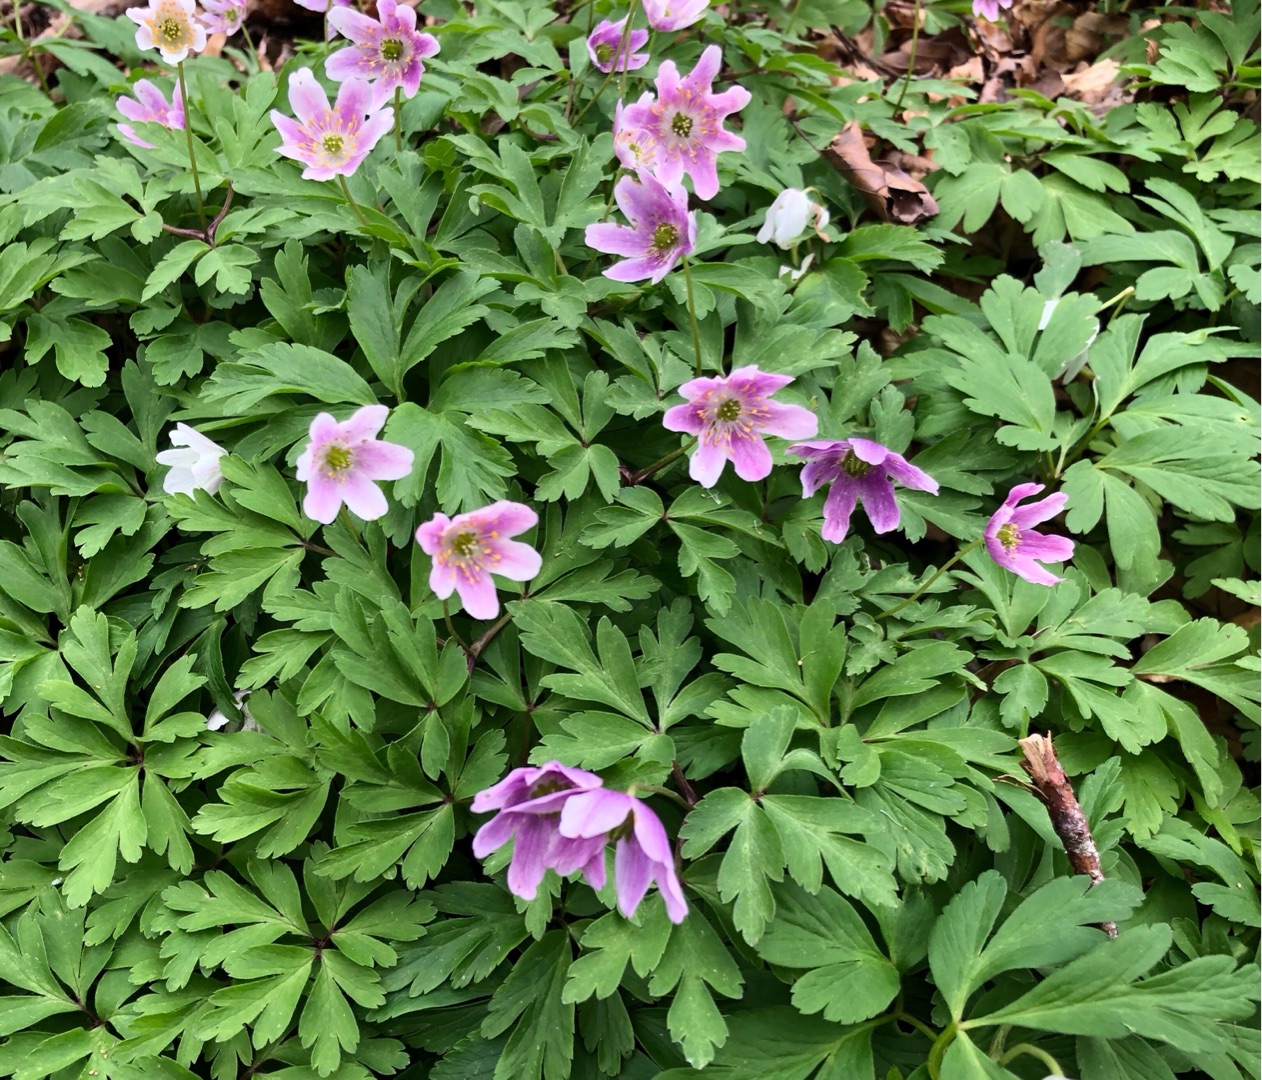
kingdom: Plantae
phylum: Tracheophyta
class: Magnoliopsida
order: Ranunculales
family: Ranunculaceae
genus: Anemone
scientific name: Anemone nemorosa
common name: Hvid anemone
